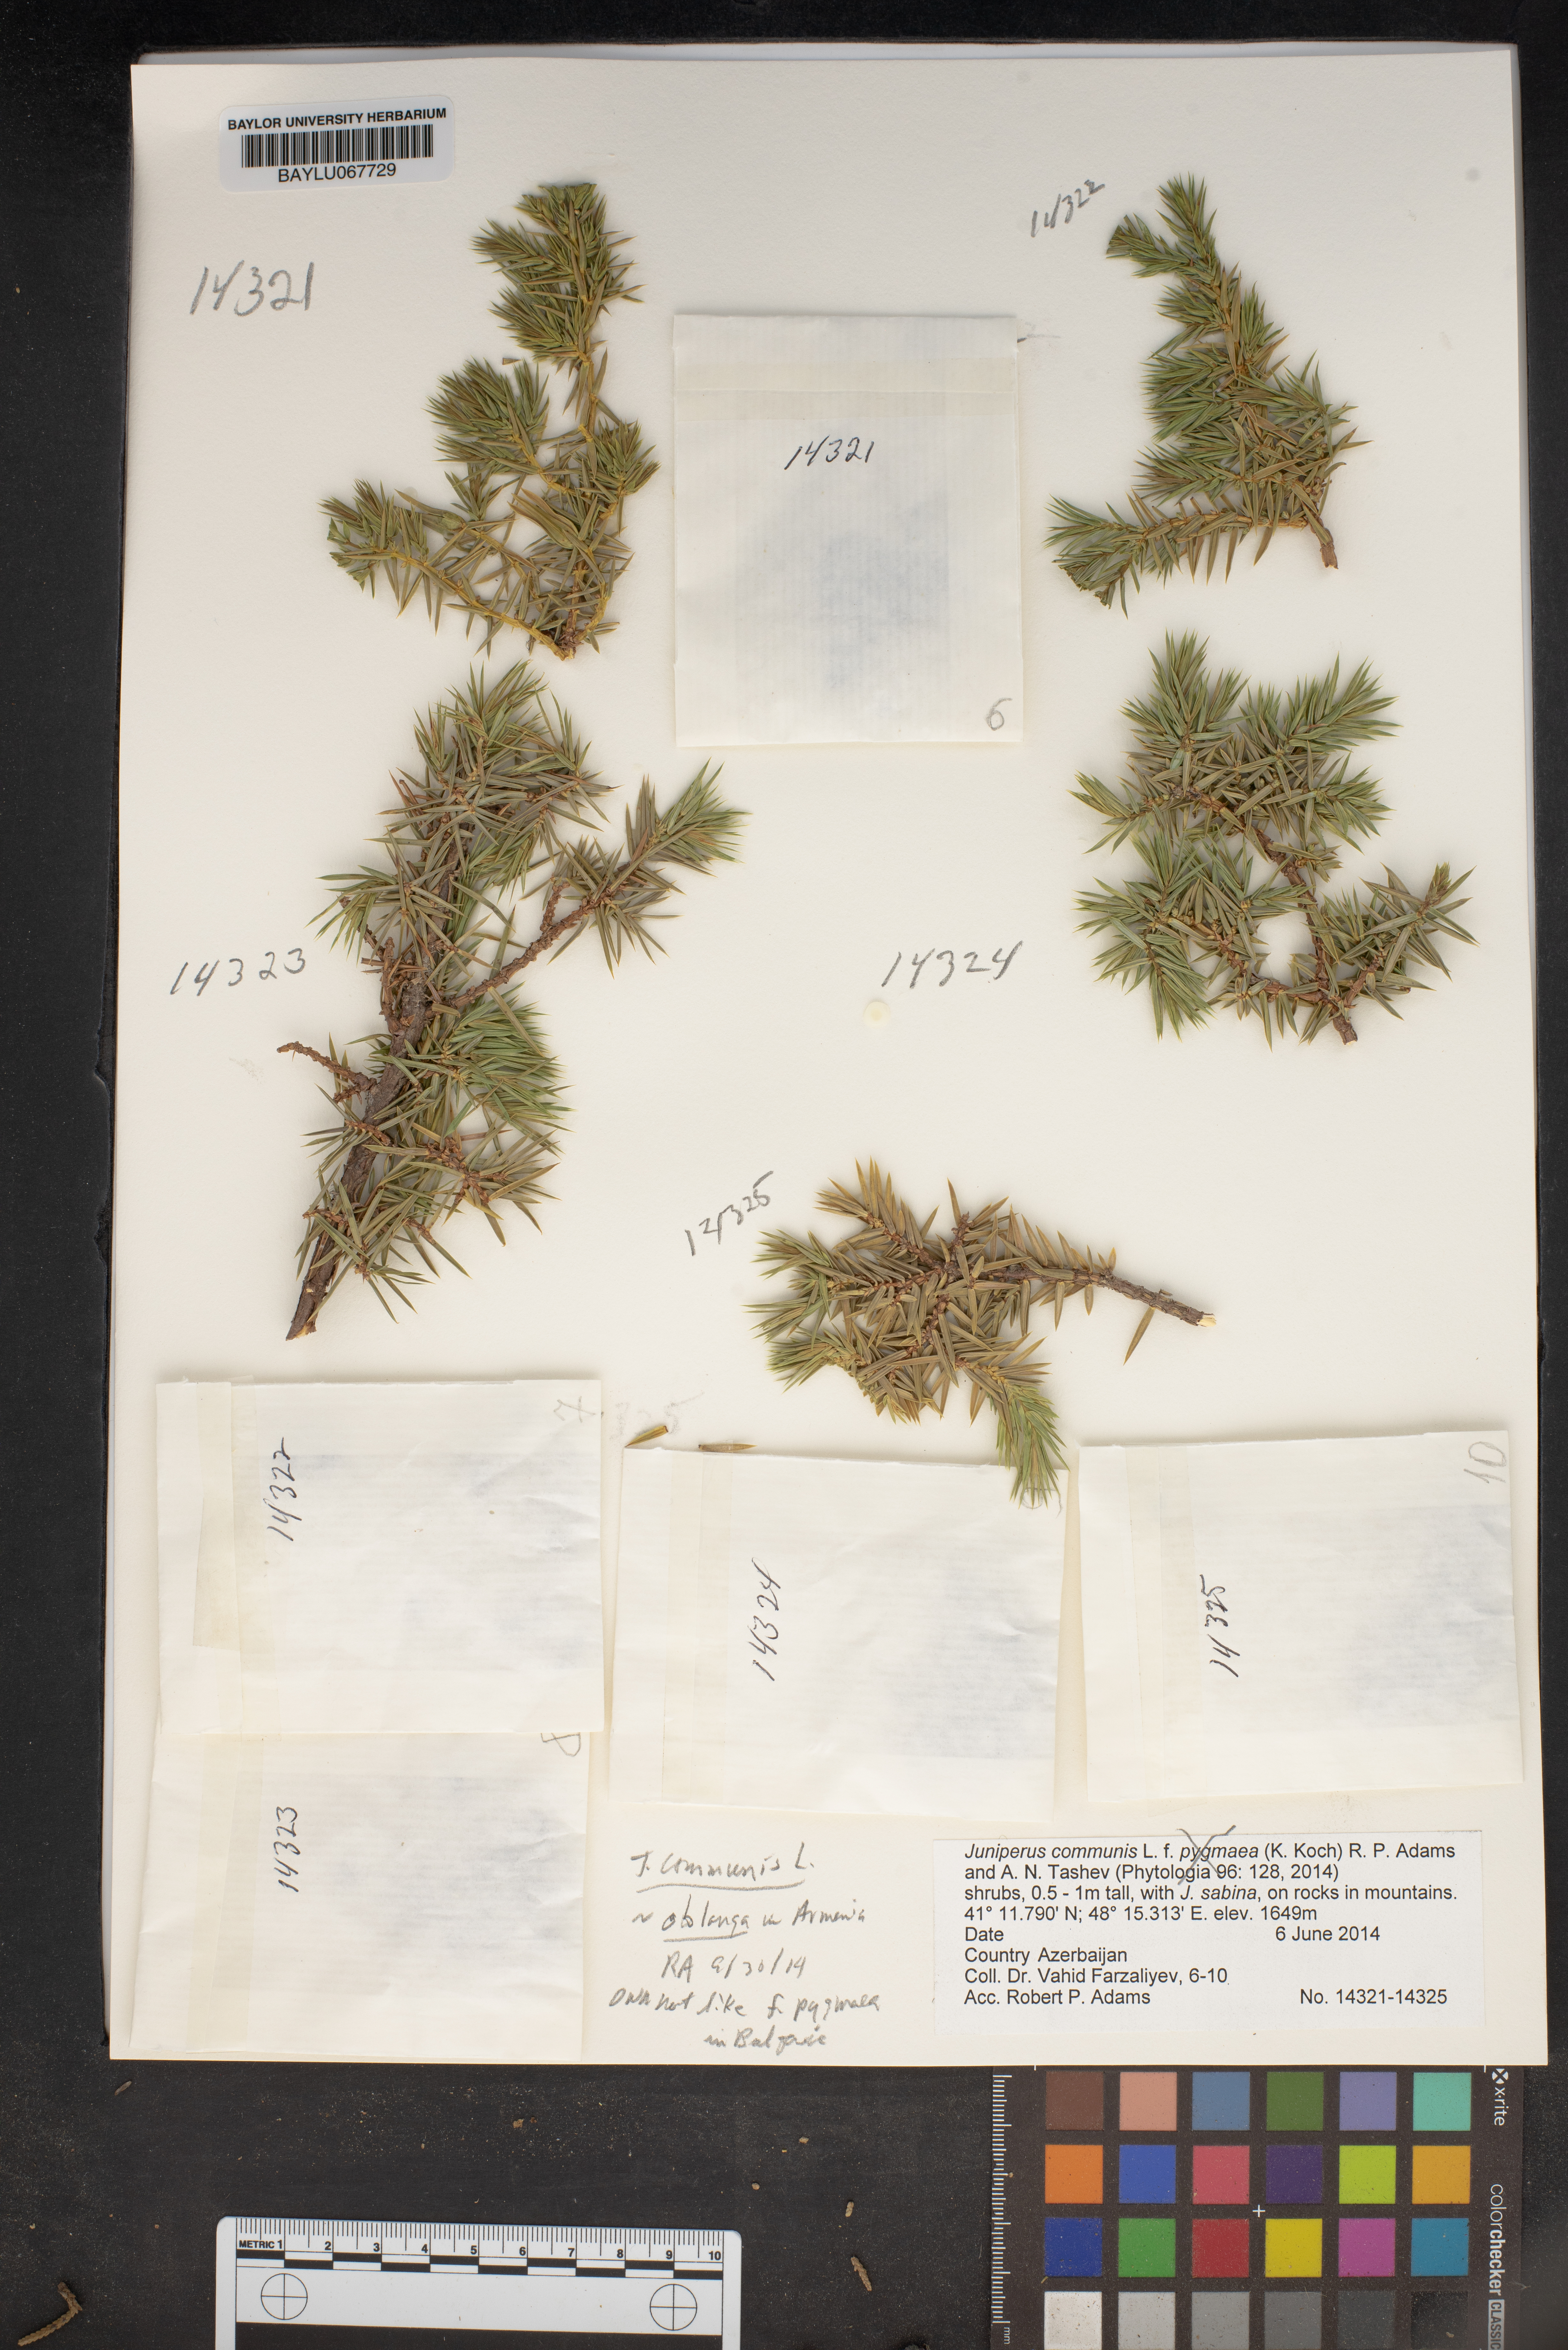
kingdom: Plantae
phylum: Tracheophyta
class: Pinopsida
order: Pinales
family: Cupressaceae
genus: Juniperus
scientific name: Juniperus communis
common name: Common juniper
